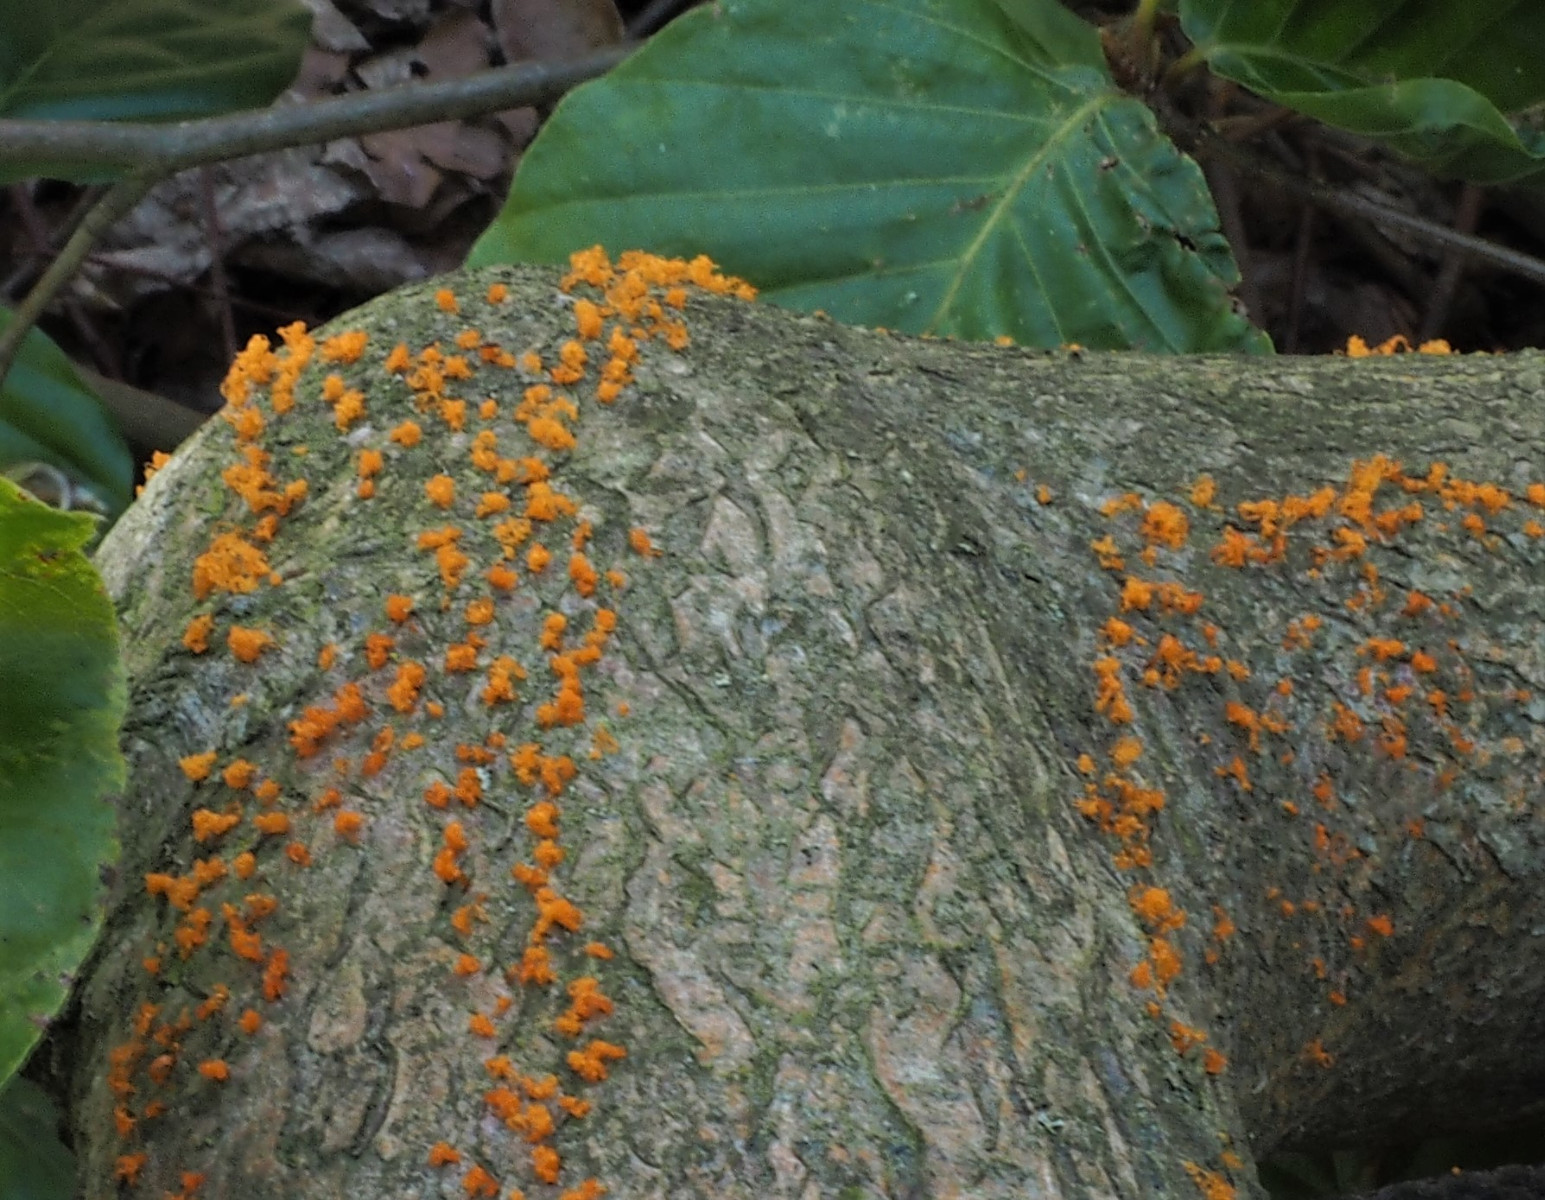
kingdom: Fungi
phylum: Ascomycota
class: Sordariomycetes
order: Xylariales
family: Diatrypaceae
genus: Eutypella
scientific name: Eutypella quaternata
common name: bøge-korsprik
